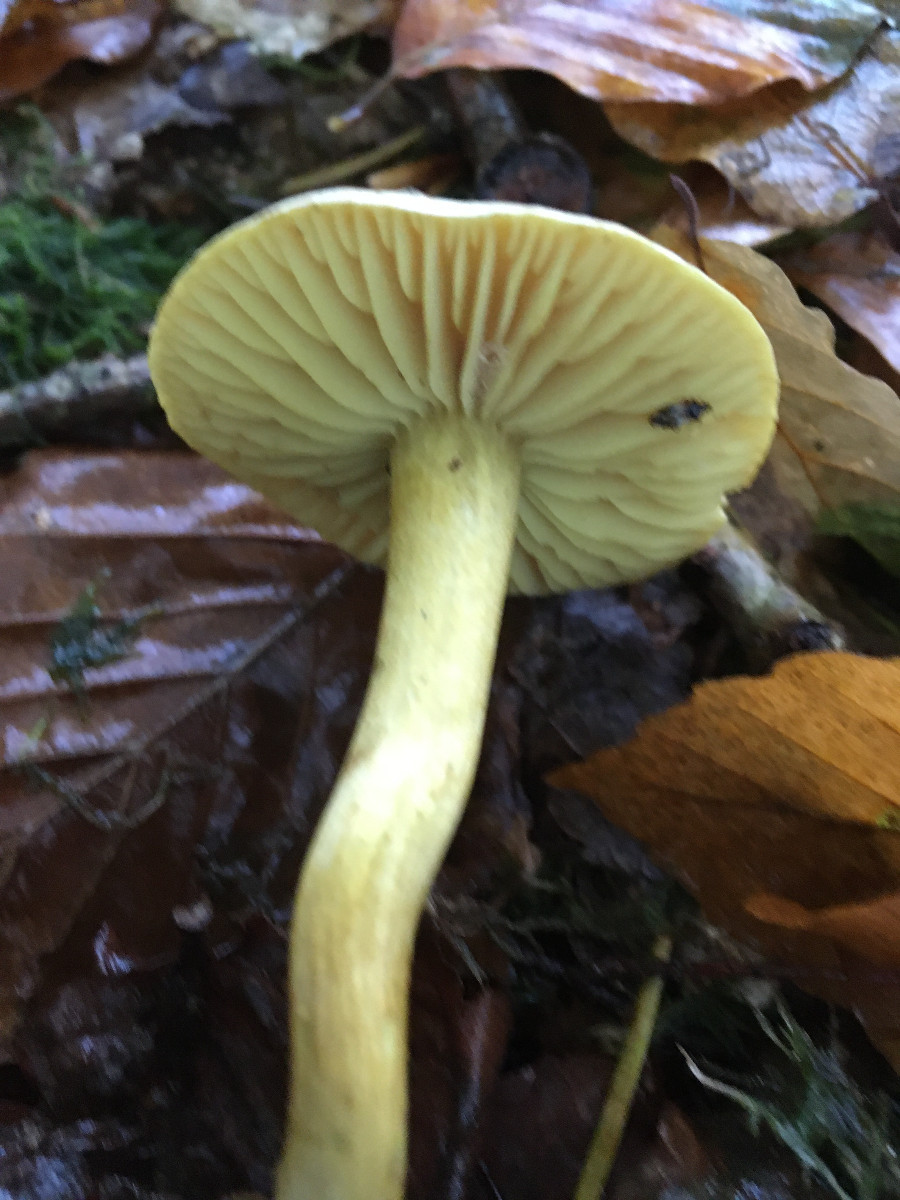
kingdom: Fungi
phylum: Basidiomycota
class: Agaricomycetes
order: Agaricales
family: Tricholomataceae
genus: Tricholoma
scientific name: Tricholoma sulphureum
